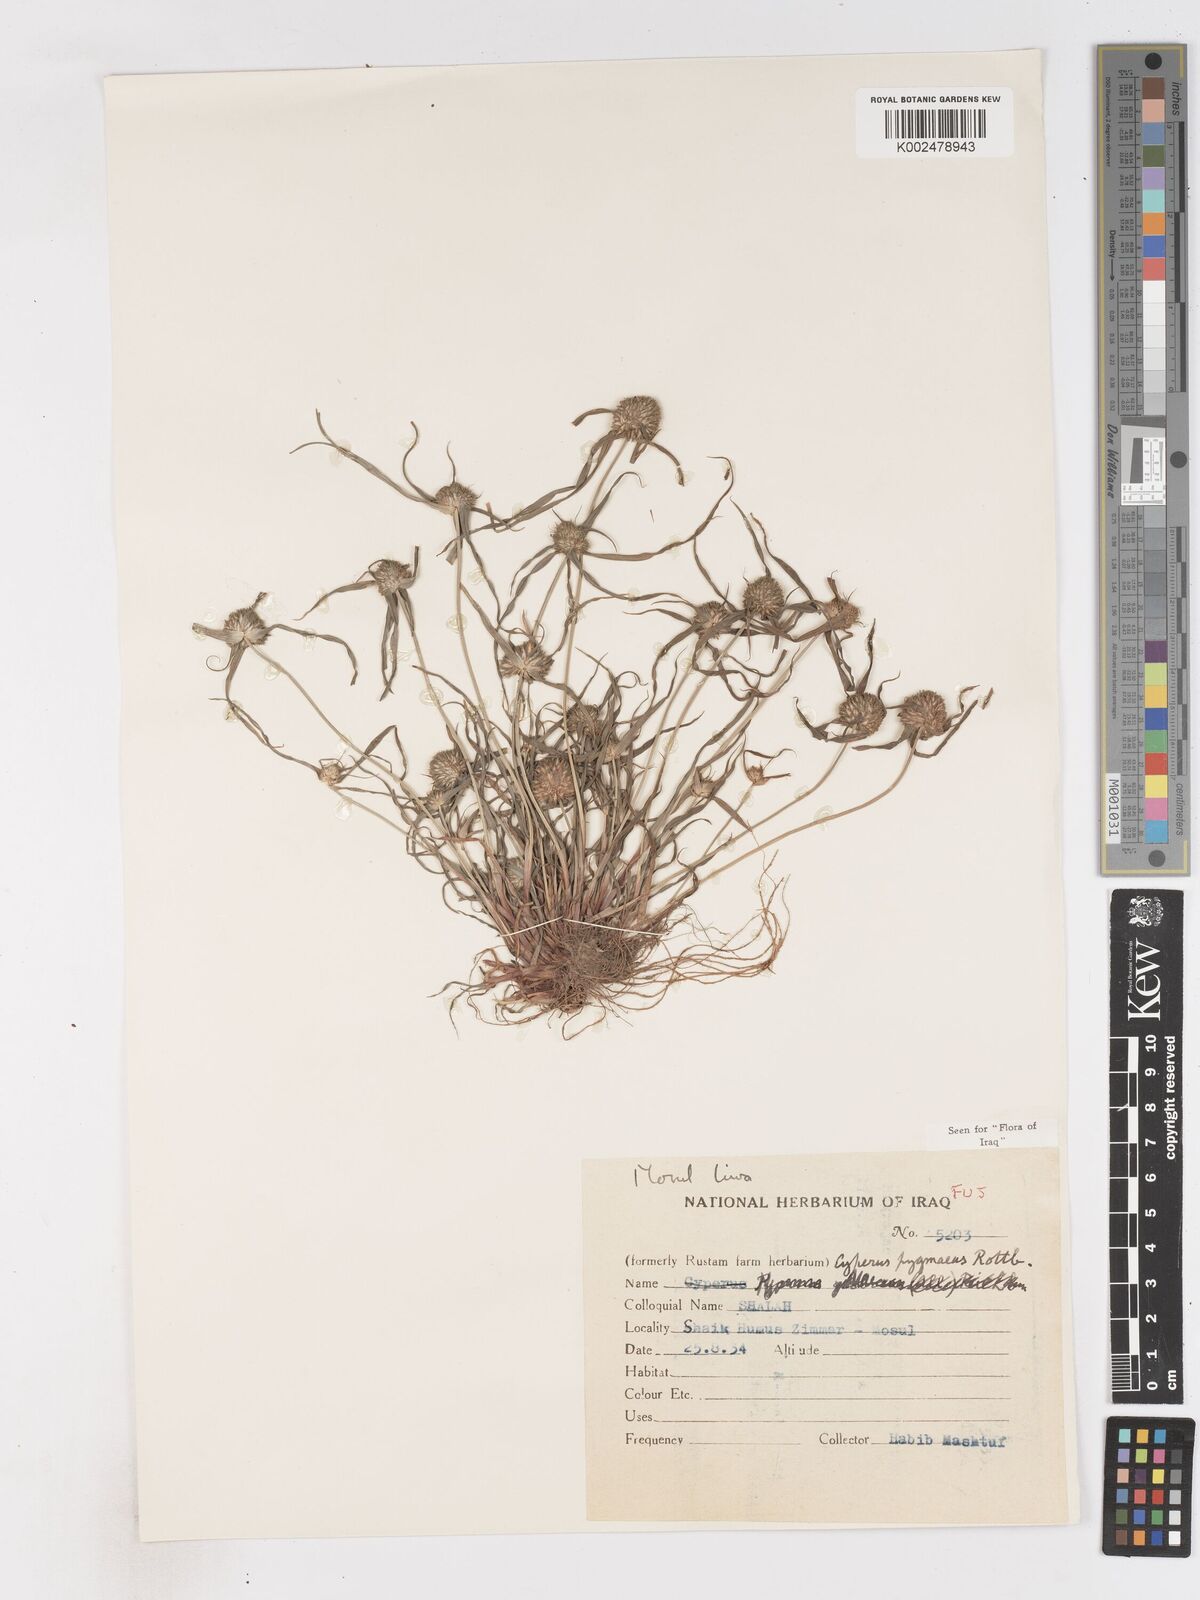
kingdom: Plantae
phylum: Tracheophyta
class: Liliopsida
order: Poales
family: Cyperaceae
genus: Cyperus
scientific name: Cyperus michelianus
